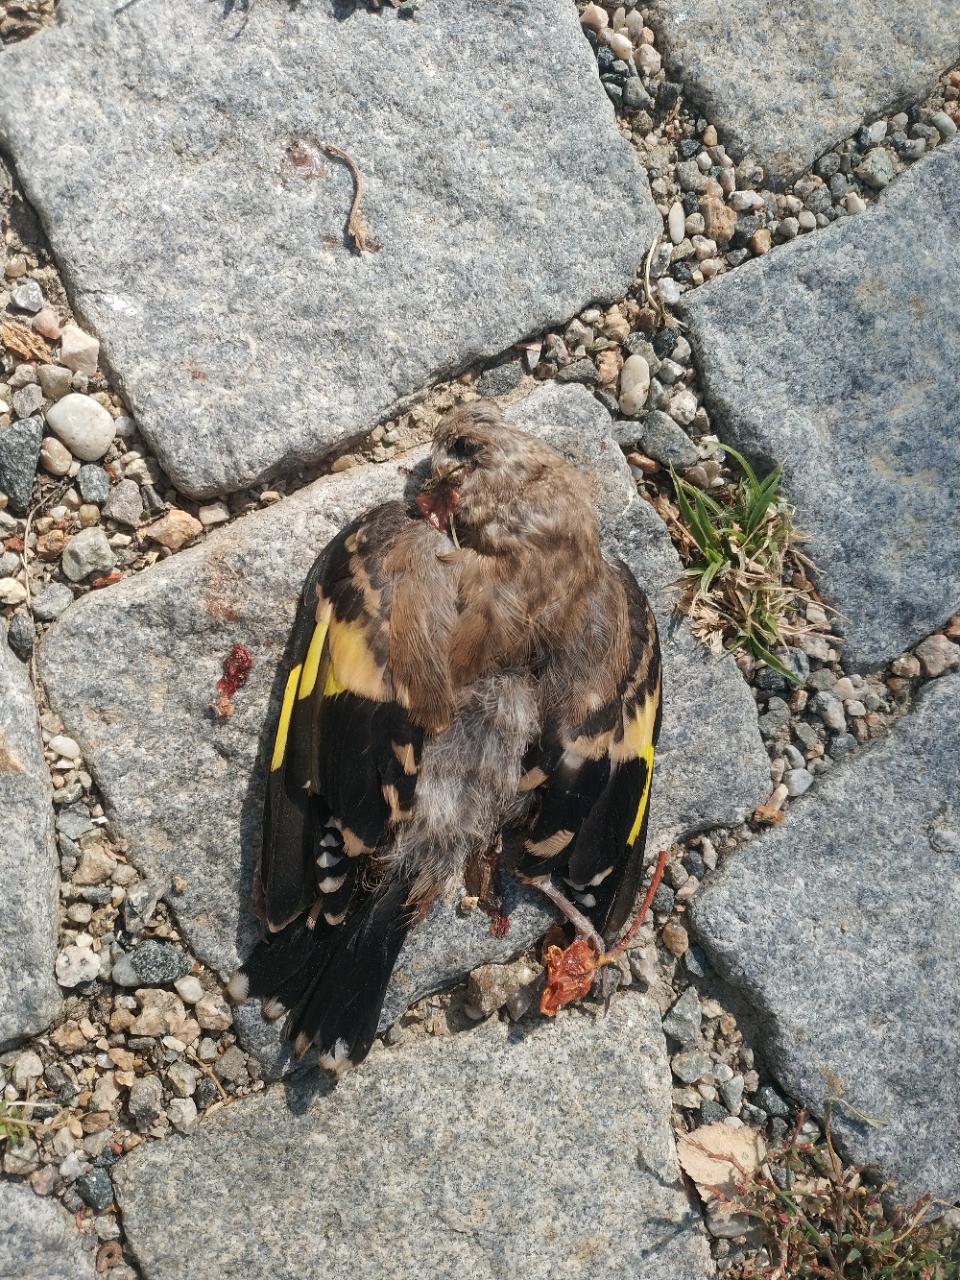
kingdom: Animalia
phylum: Chordata
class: Aves
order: Passeriformes
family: Fringillidae
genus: Carduelis
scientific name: Carduelis carduelis
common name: European goldfinch
